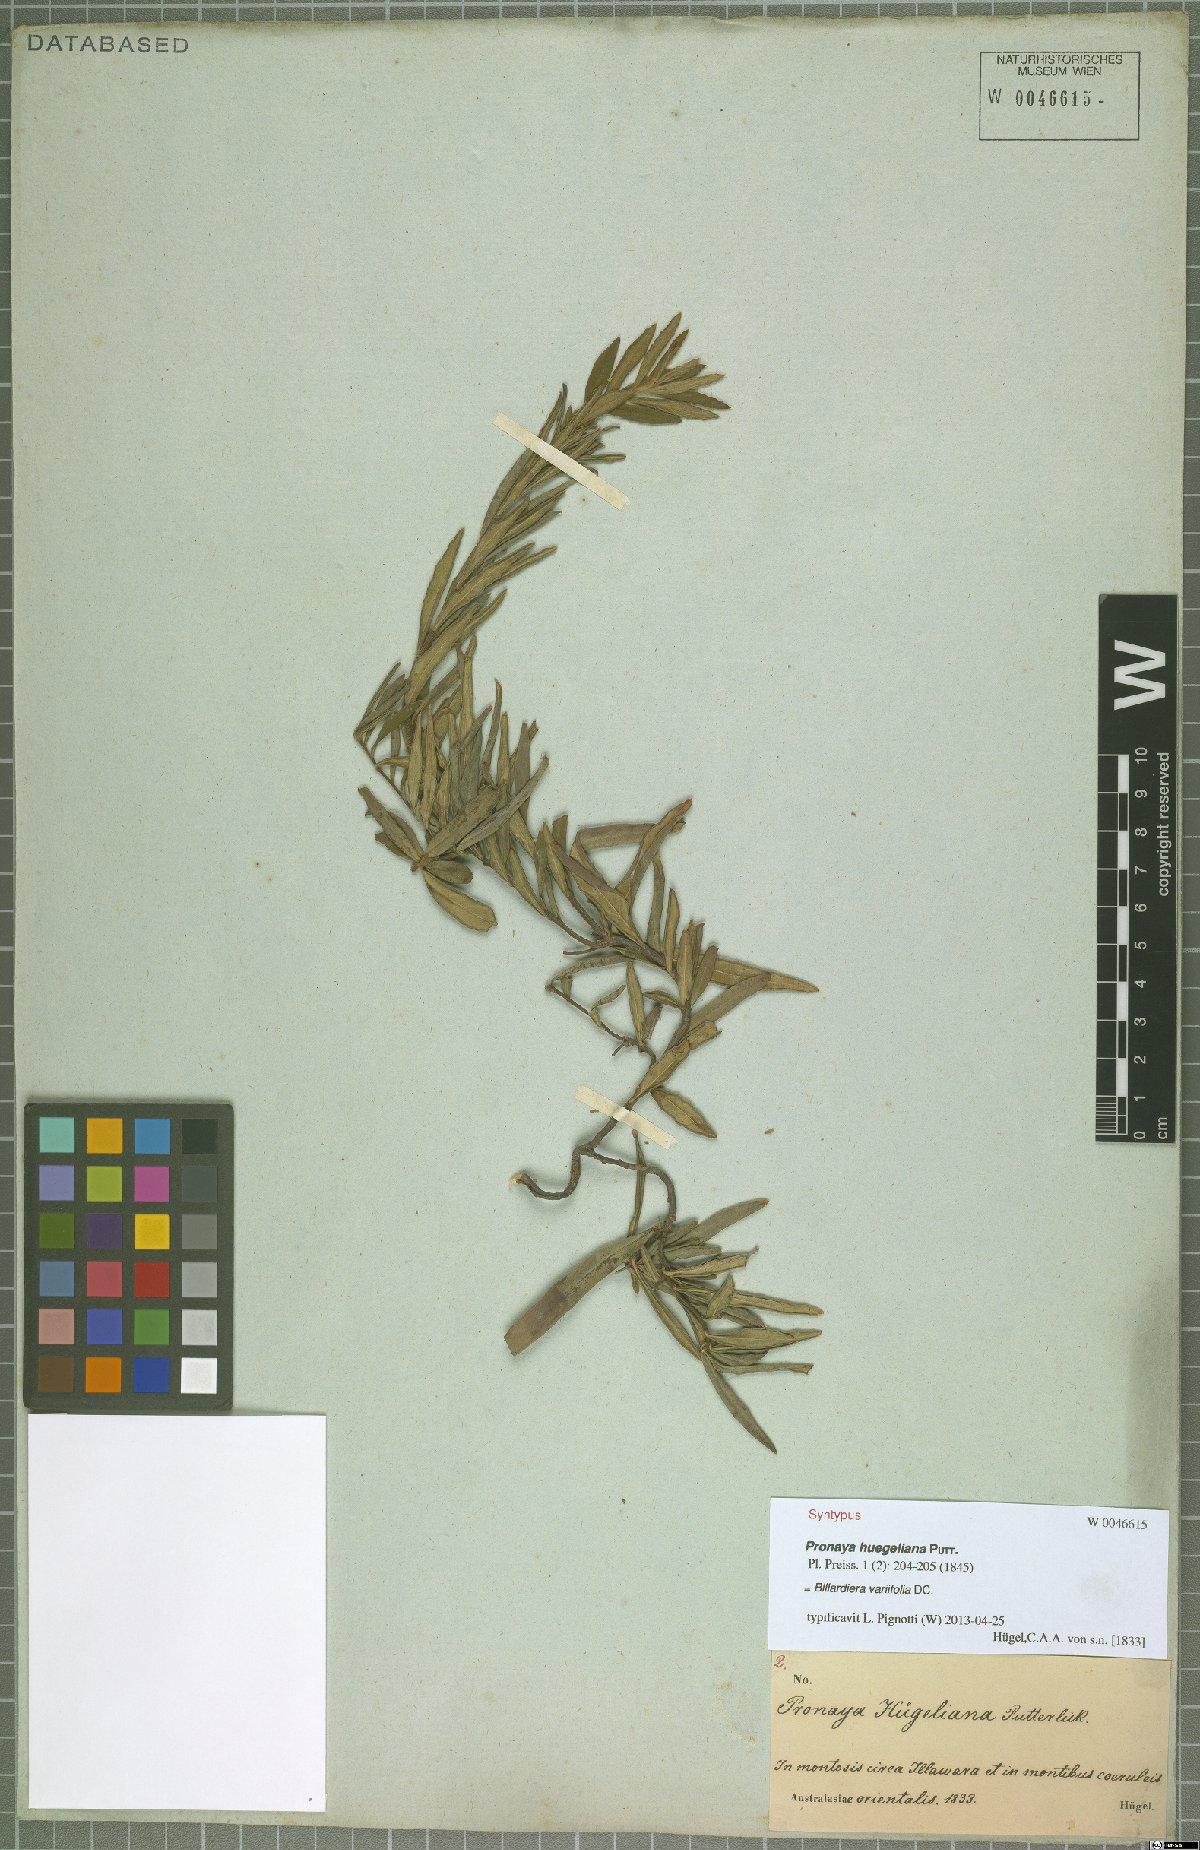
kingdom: Plantae
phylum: Tracheophyta
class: Magnoliopsida
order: Apiales
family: Pittosporaceae
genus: Billardiera
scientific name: Billardiera variifolia
